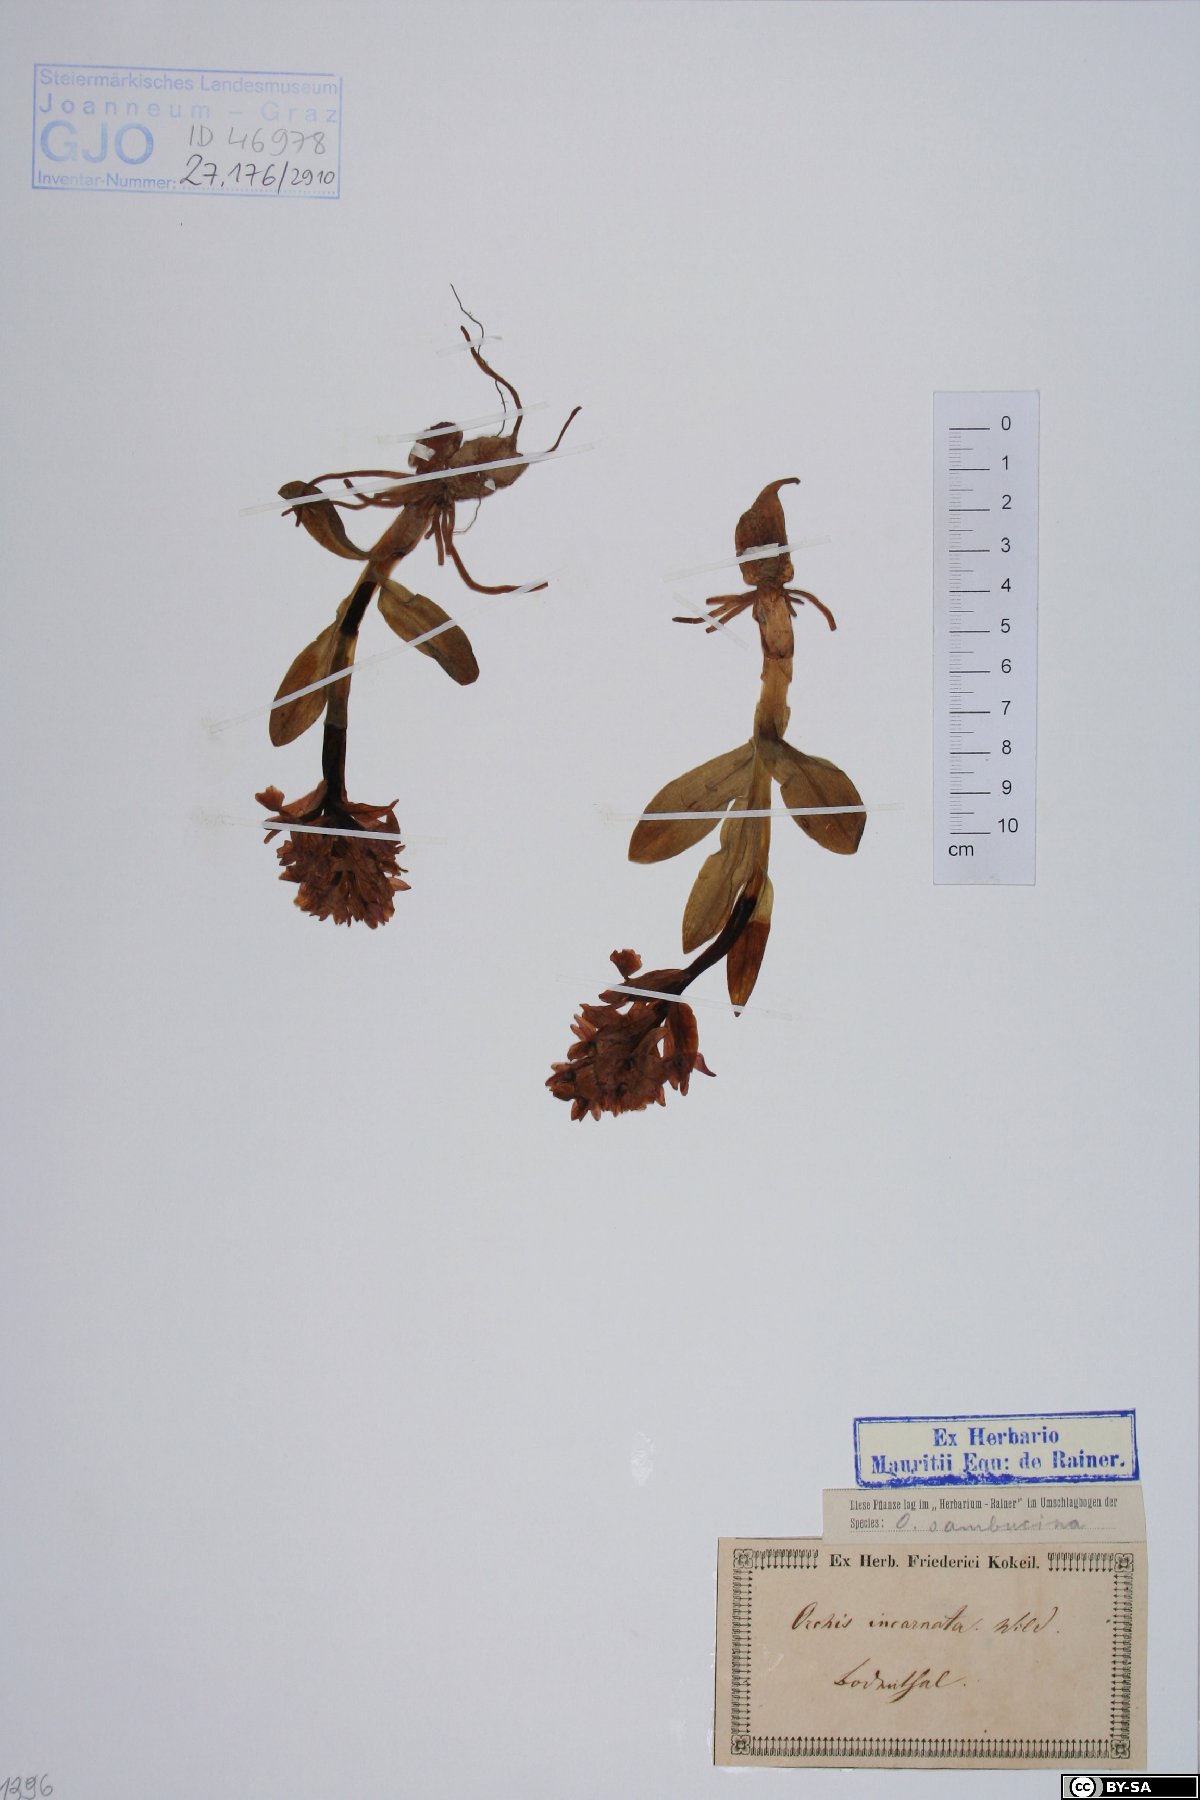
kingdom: Plantae
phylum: Tracheophyta
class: Liliopsida
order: Asparagales
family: Orchidaceae
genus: Dactylorhiza
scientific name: Dactylorhiza incarnata
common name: Early marsh-orchid
